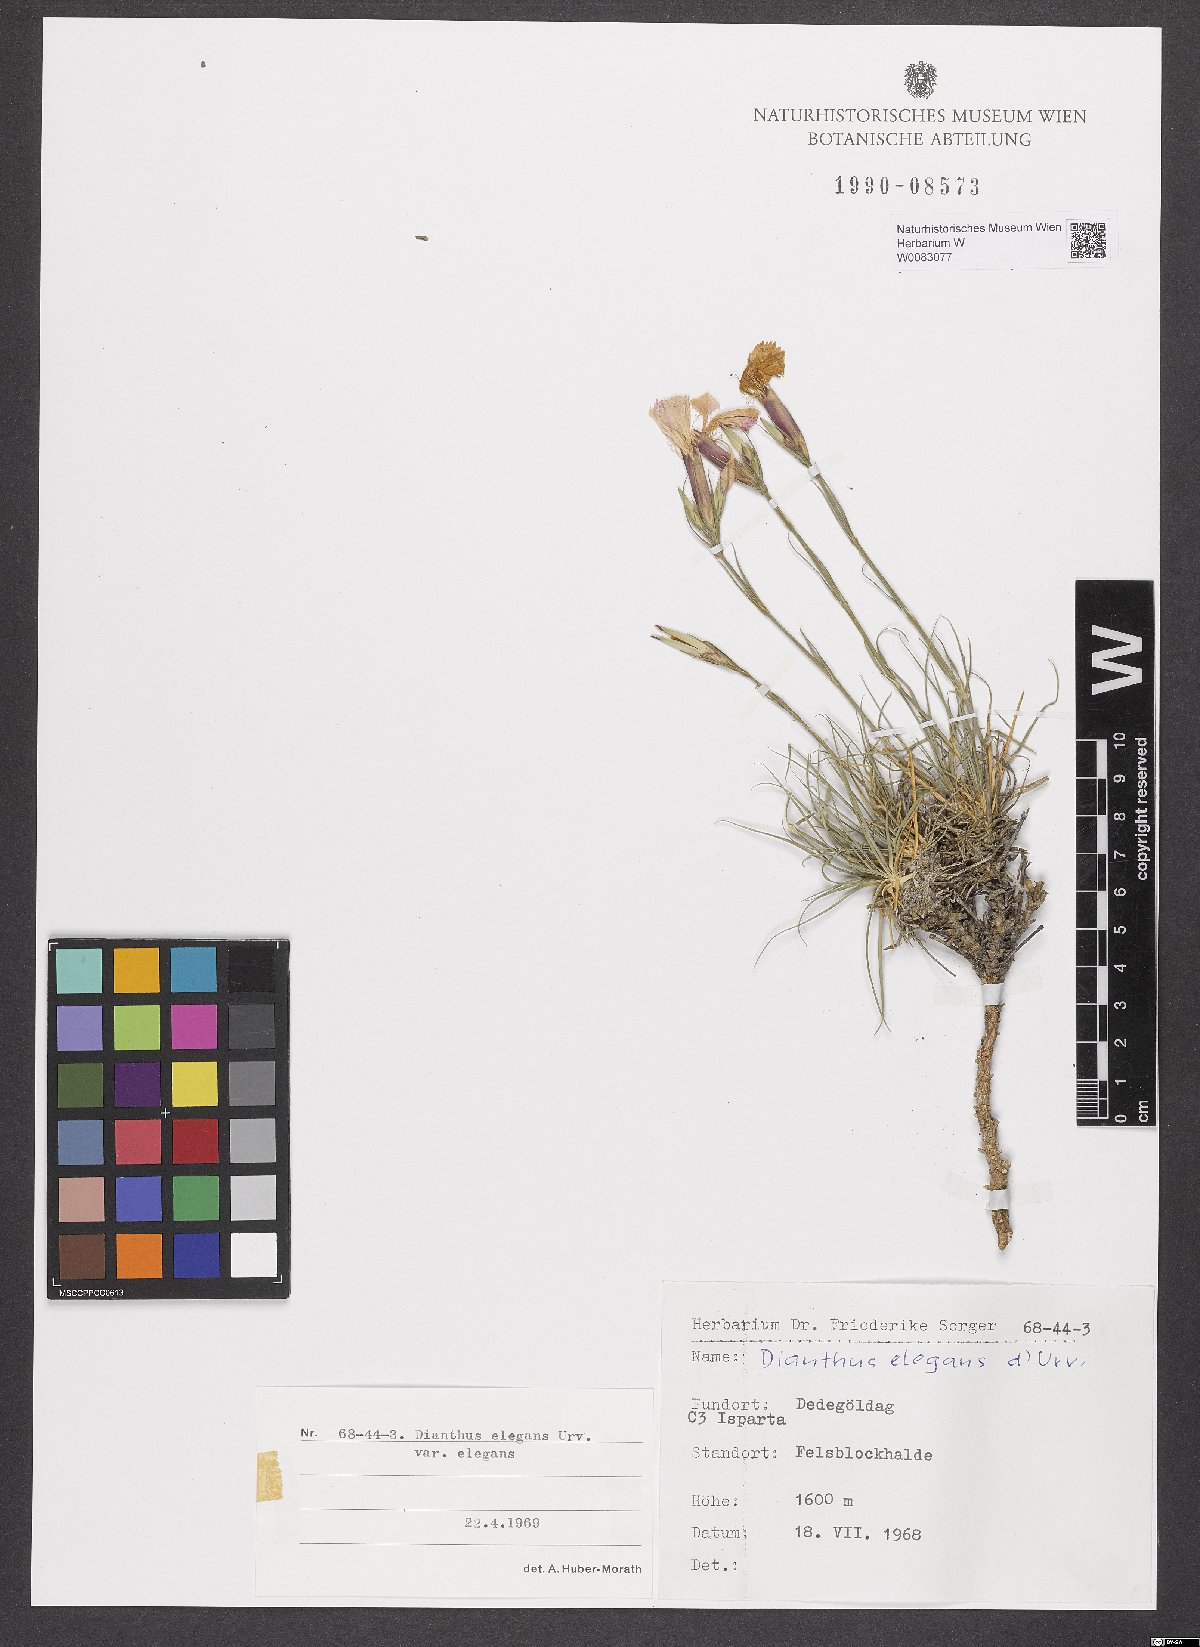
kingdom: Plantae
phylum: Tracheophyta
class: Magnoliopsida
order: Caryophyllales
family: Caryophyllaceae
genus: Dianthus
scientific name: Dianthus elegans
